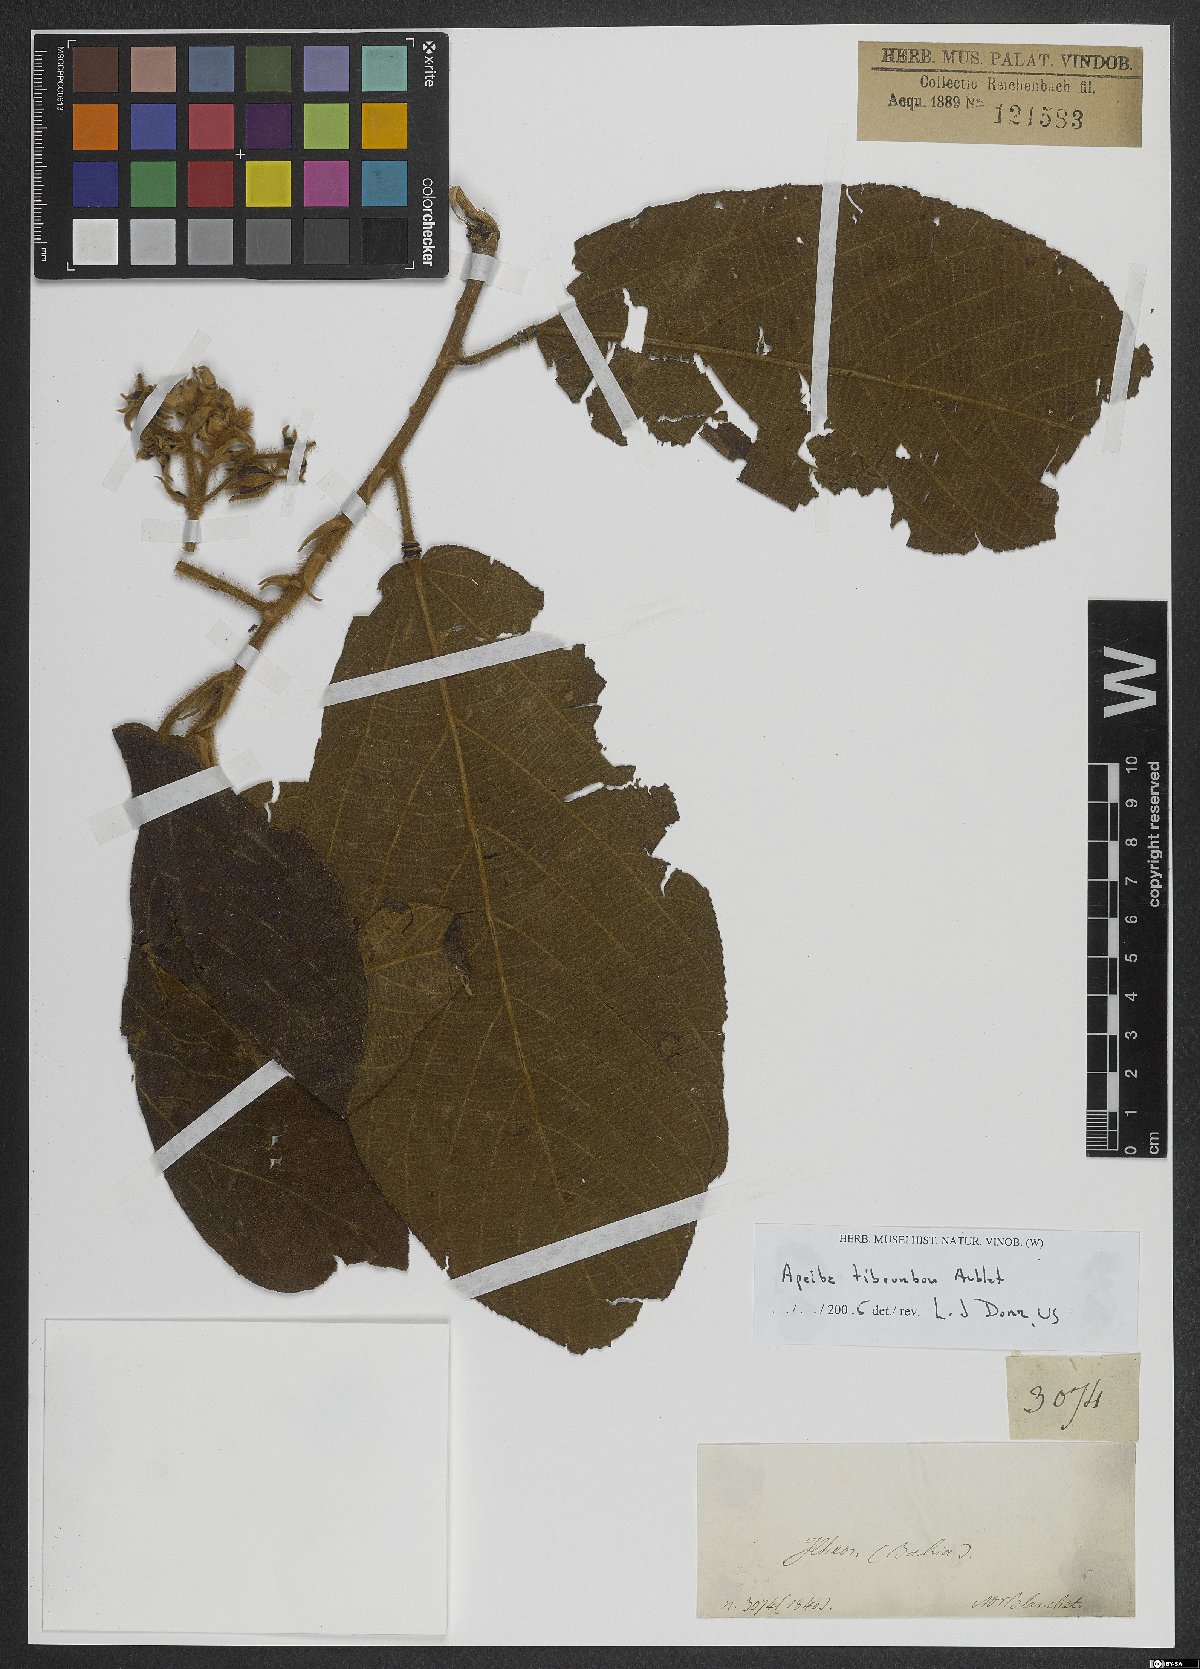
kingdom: Plantae
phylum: Tracheophyta
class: Magnoliopsida
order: Malvales
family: Malvaceae
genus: Apeiba
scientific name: Apeiba tibourbou
